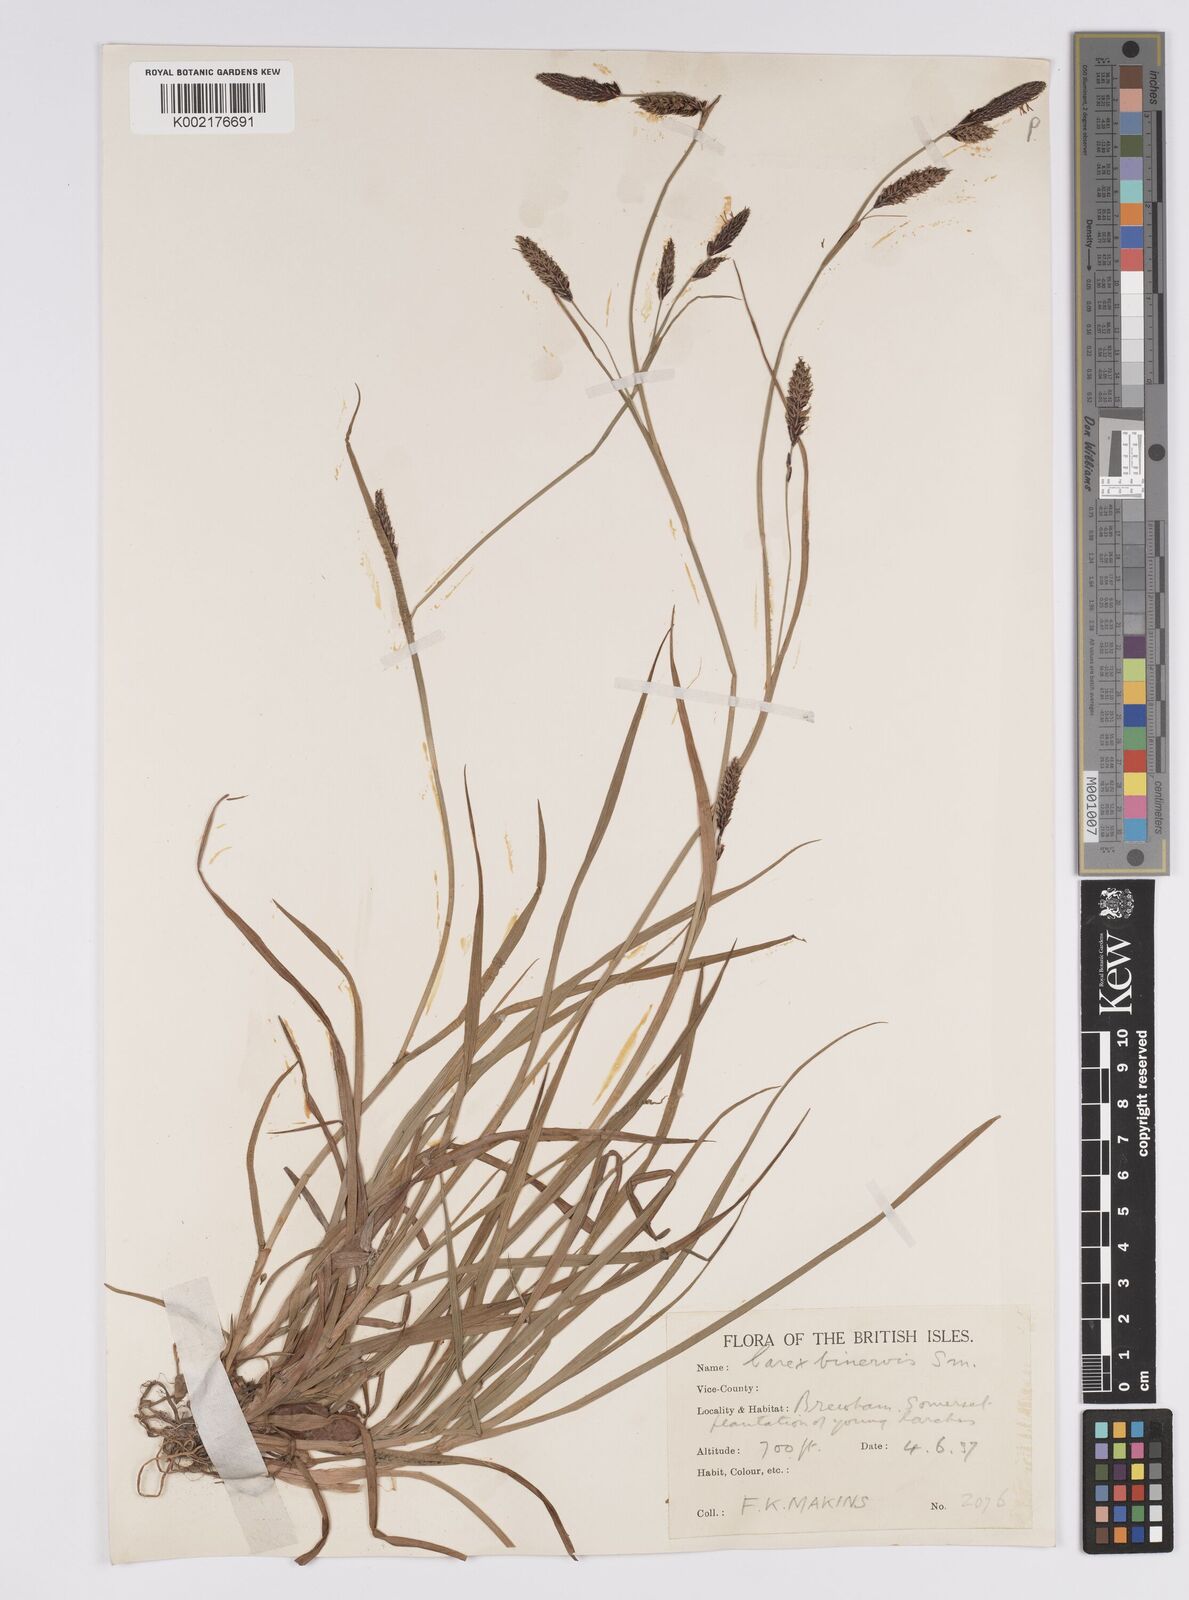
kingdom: Plantae
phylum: Tracheophyta
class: Liliopsida
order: Poales
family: Cyperaceae
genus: Carex
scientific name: Carex binervis
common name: Green-ribbed sedge
